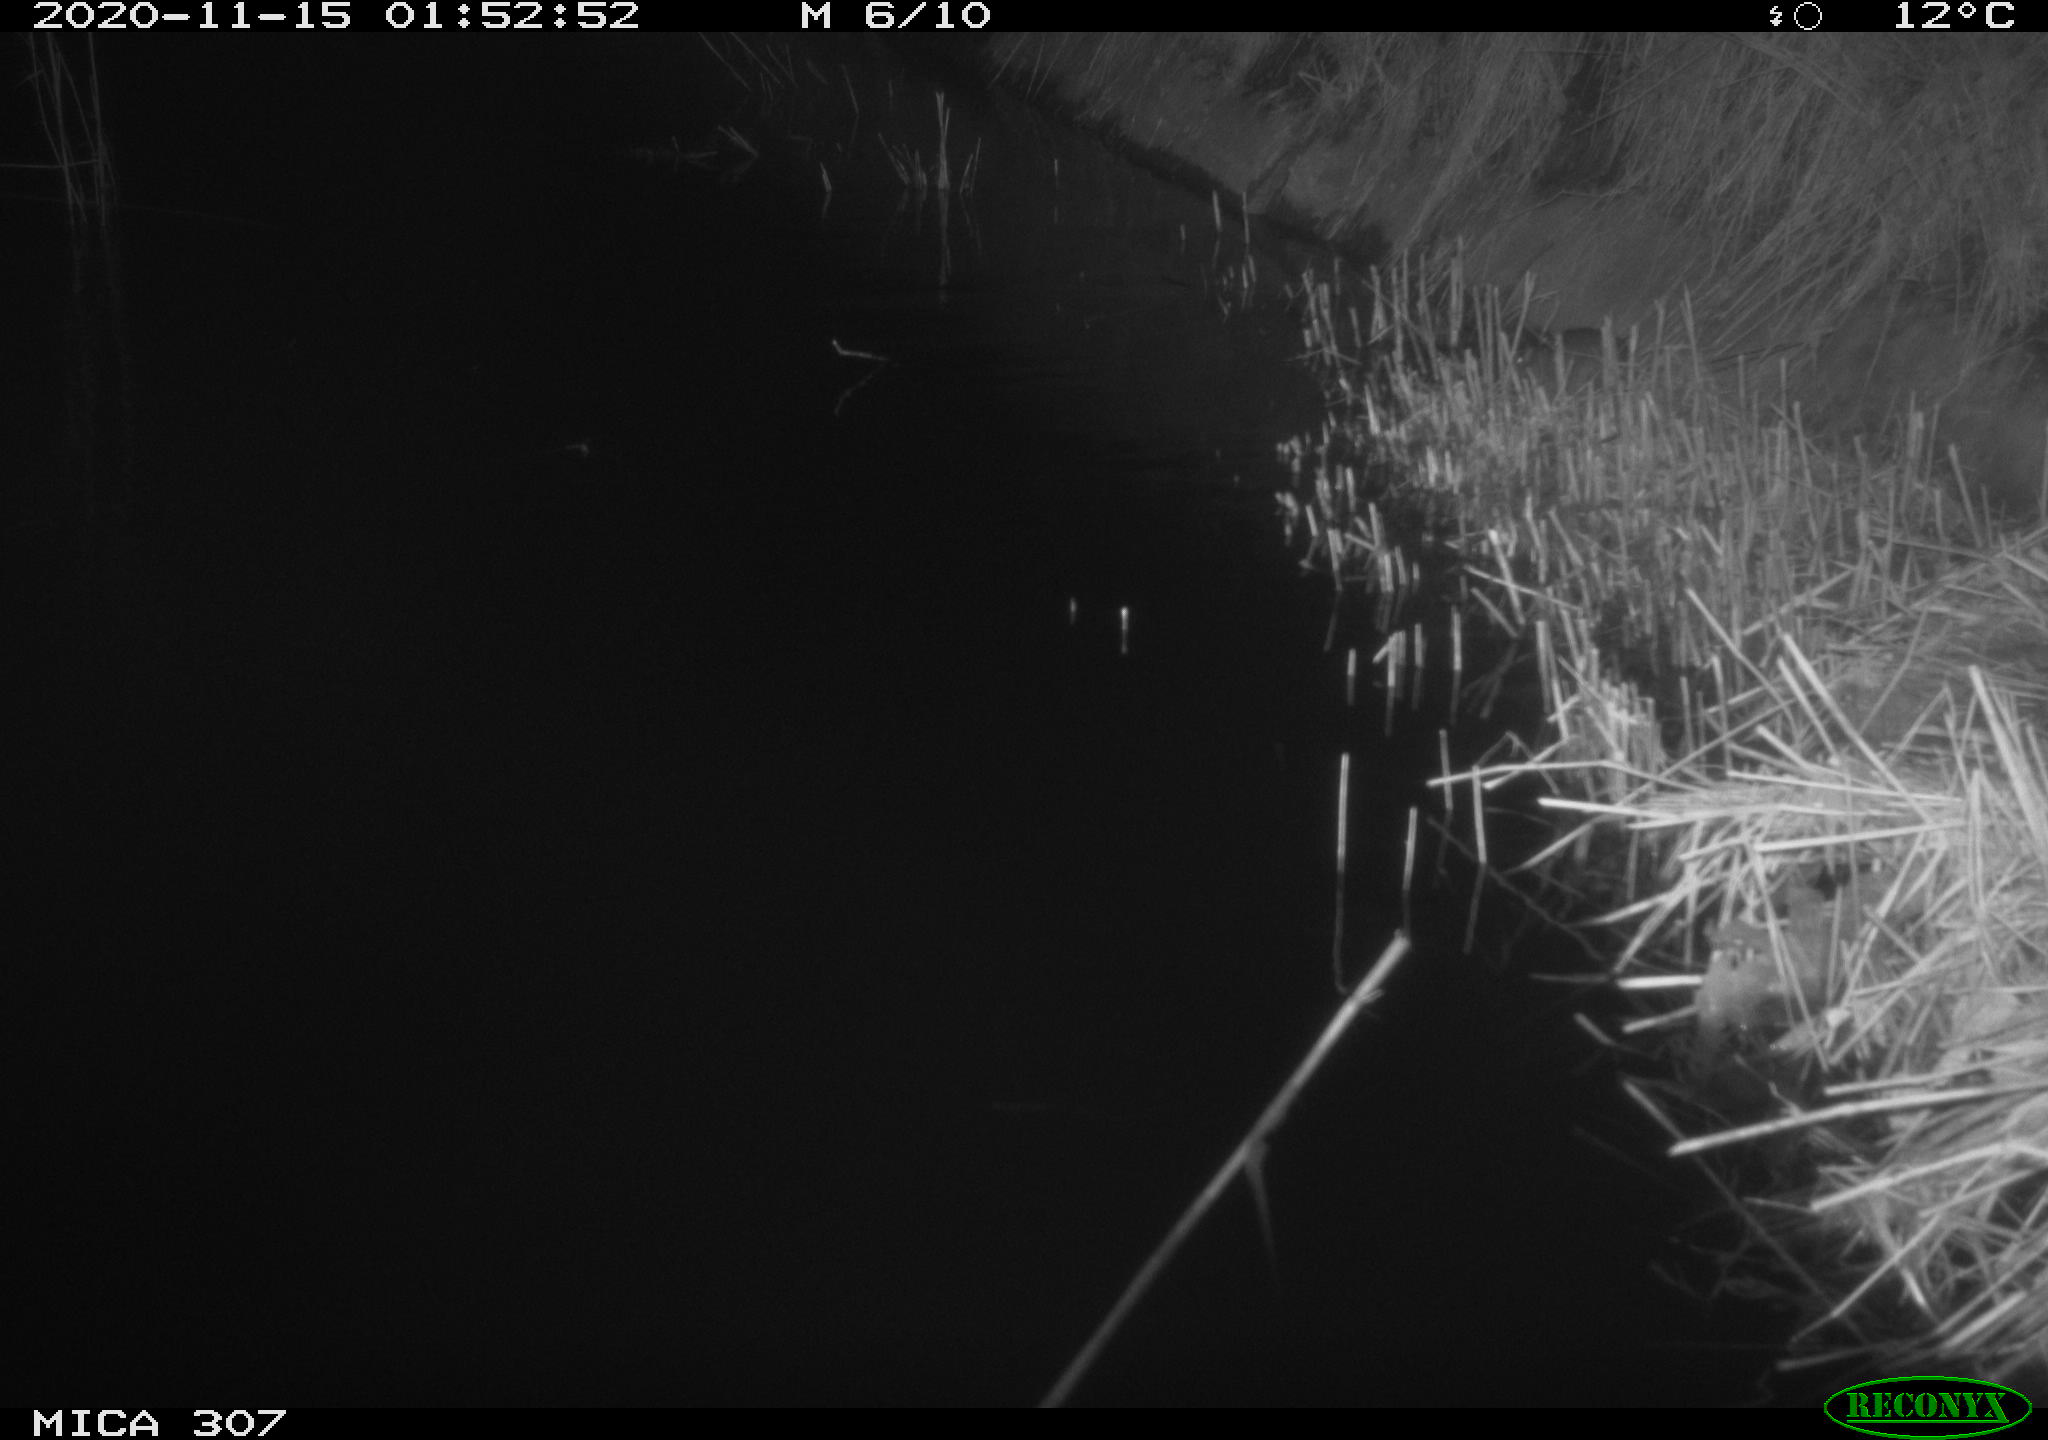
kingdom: Animalia
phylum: Chordata
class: Mammalia
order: Rodentia
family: Muridae
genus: Rattus
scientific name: Rattus norvegicus
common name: Brown rat
